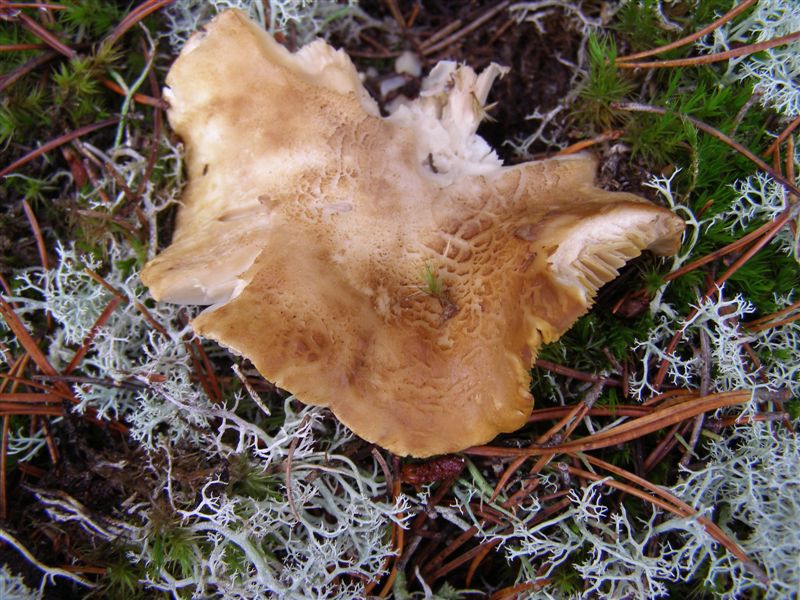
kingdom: Fungi
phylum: Basidiomycota
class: Agaricomycetes
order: Agaricales
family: Tricholomataceae
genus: Tricholoma
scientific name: Tricholoma apium
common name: suppe-ridderhat
